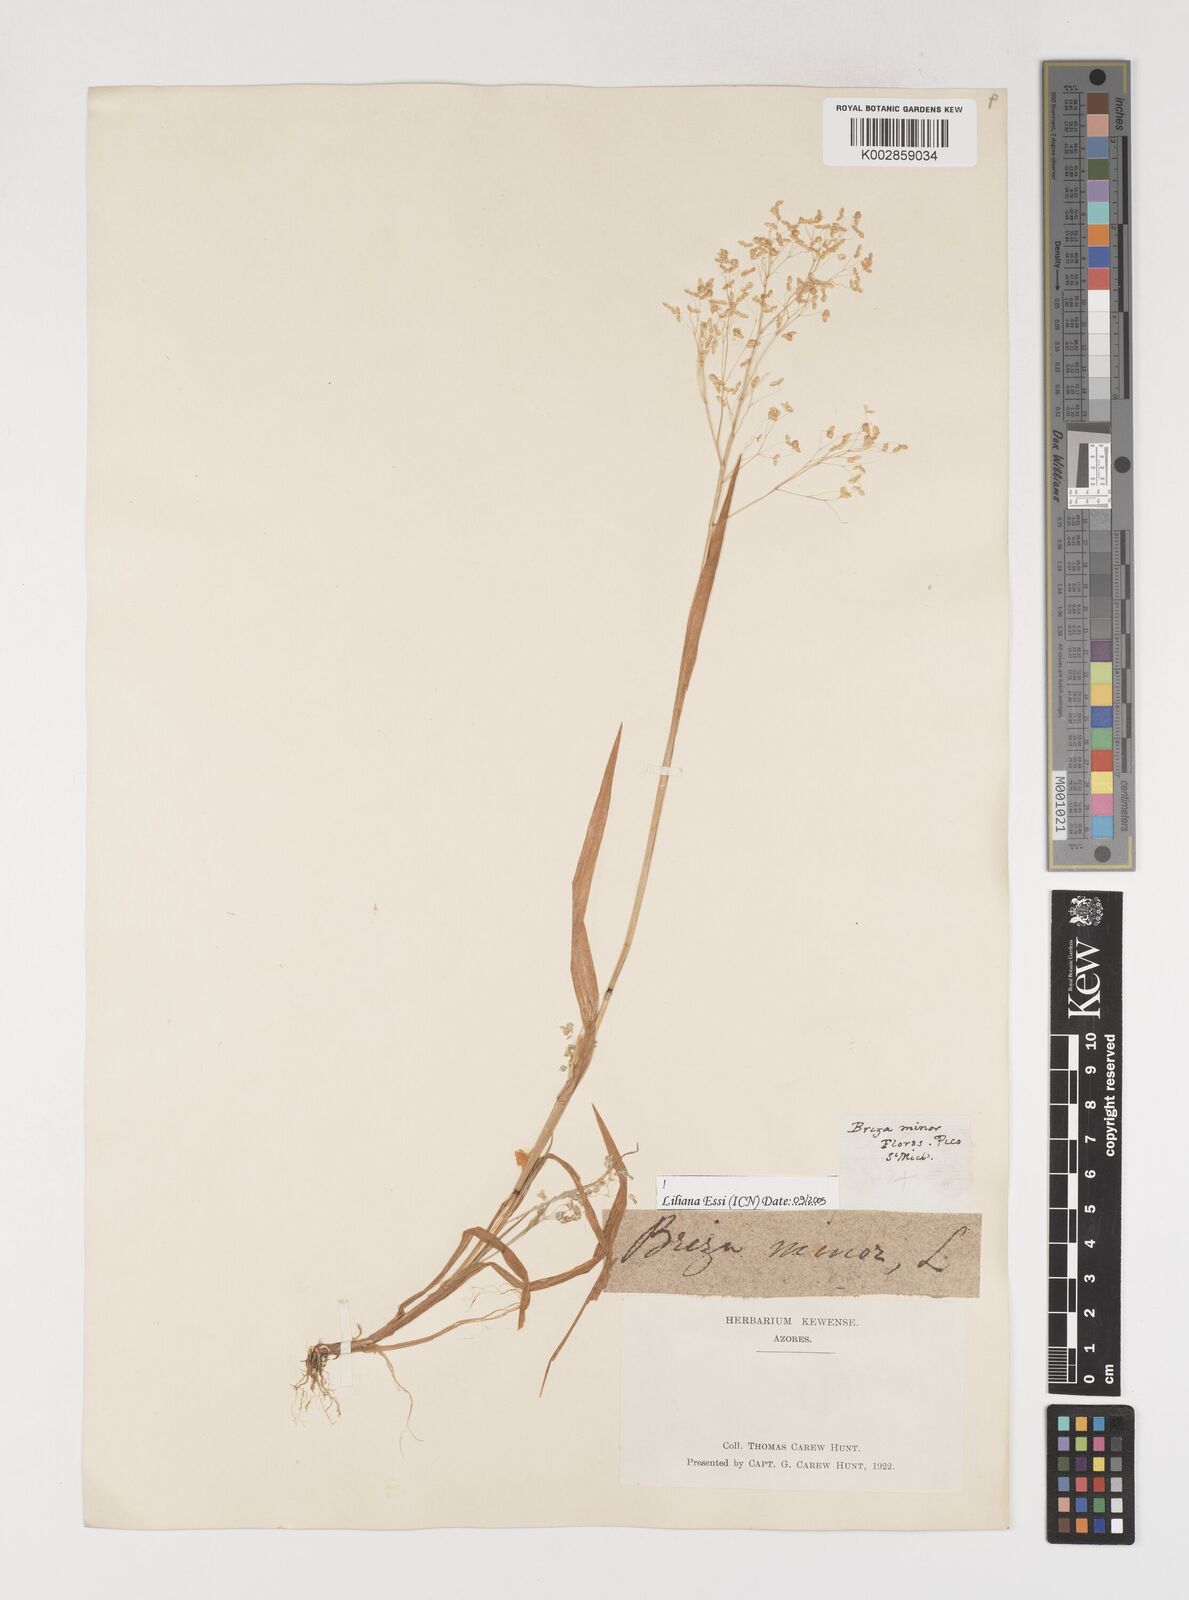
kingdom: Plantae
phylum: Tracheophyta
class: Liliopsida
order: Poales
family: Poaceae
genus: Briza
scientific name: Briza minor
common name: Lesser quaking-grass
